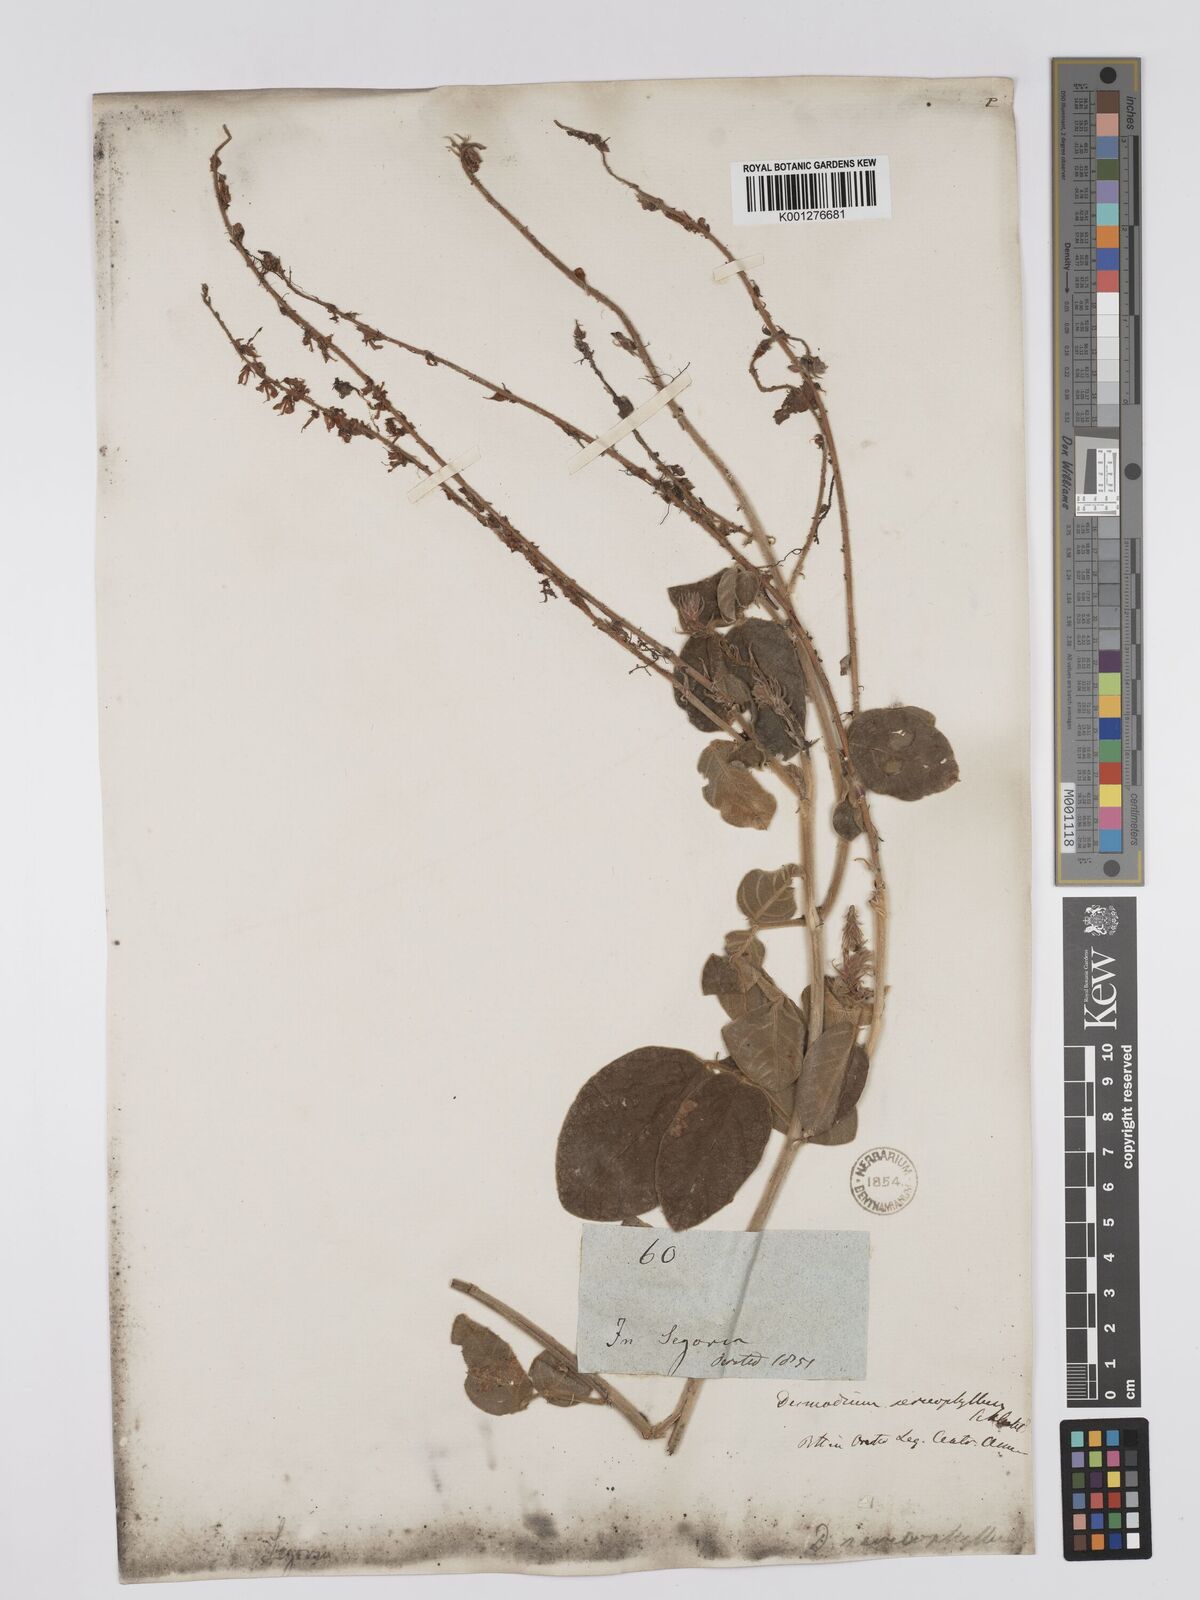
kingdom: Plantae
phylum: Tracheophyta
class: Magnoliopsida
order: Fabales
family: Fabaceae
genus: Desmodium
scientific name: Desmodium sericophyllum
